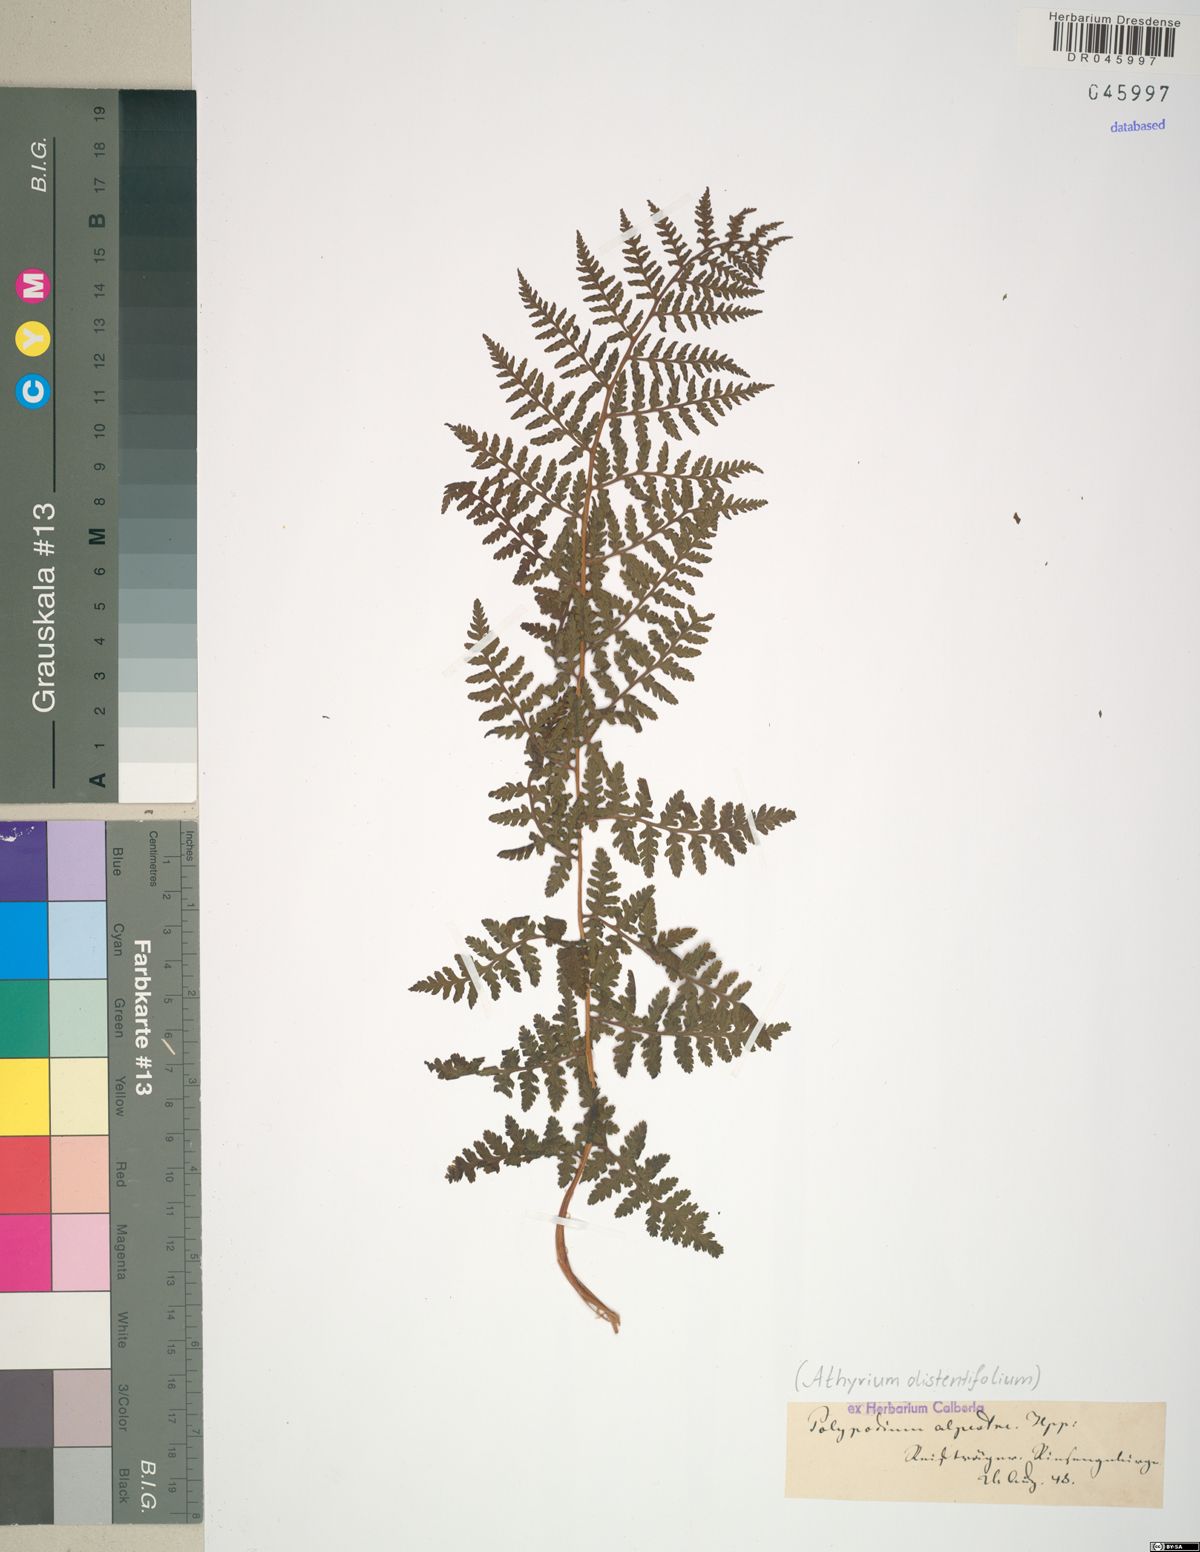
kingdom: Plantae
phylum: Tracheophyta
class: Polypodiopsida
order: Polypodiales
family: Athyriaceae
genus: Pseudathyrium
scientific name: Pseudathyrium alpestre
